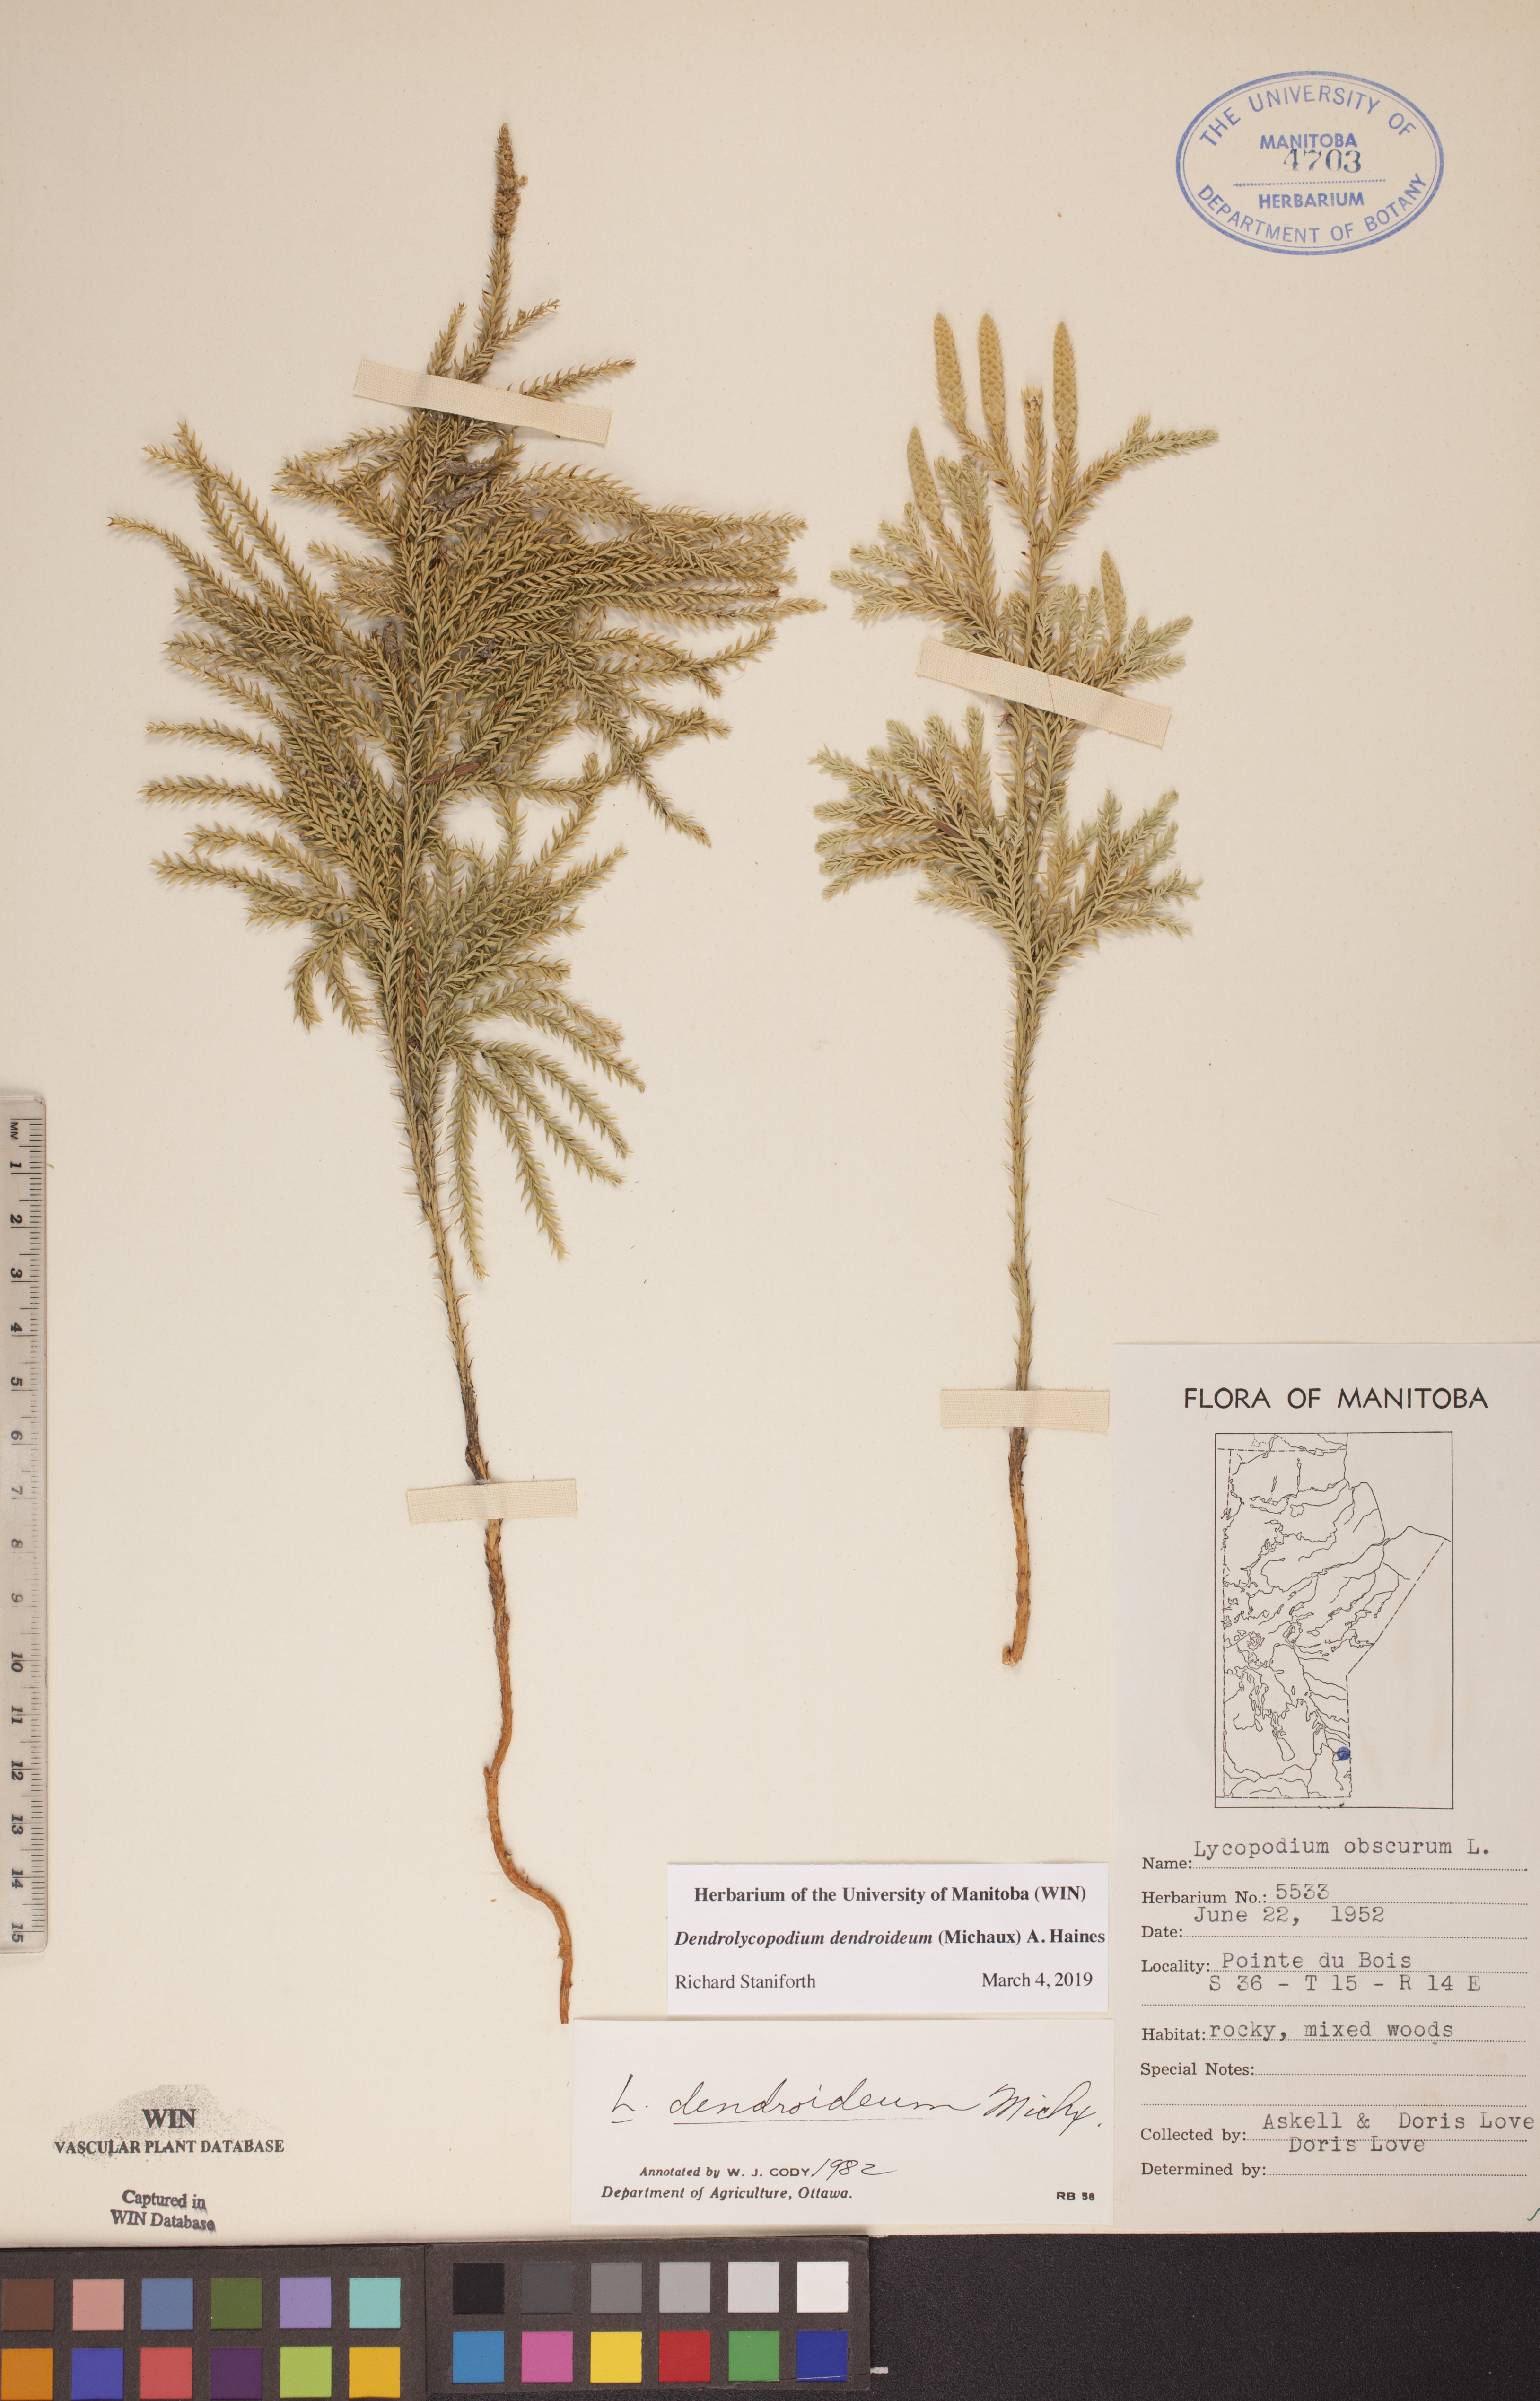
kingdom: Plantae
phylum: Tracheophyta
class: Lycopodiopsida
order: Lycopodiales
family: Lycopodiaceae
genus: Dendrolycopodium
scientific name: Dendrolycopodium dendroideum
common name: Northern tree-clubmoss
